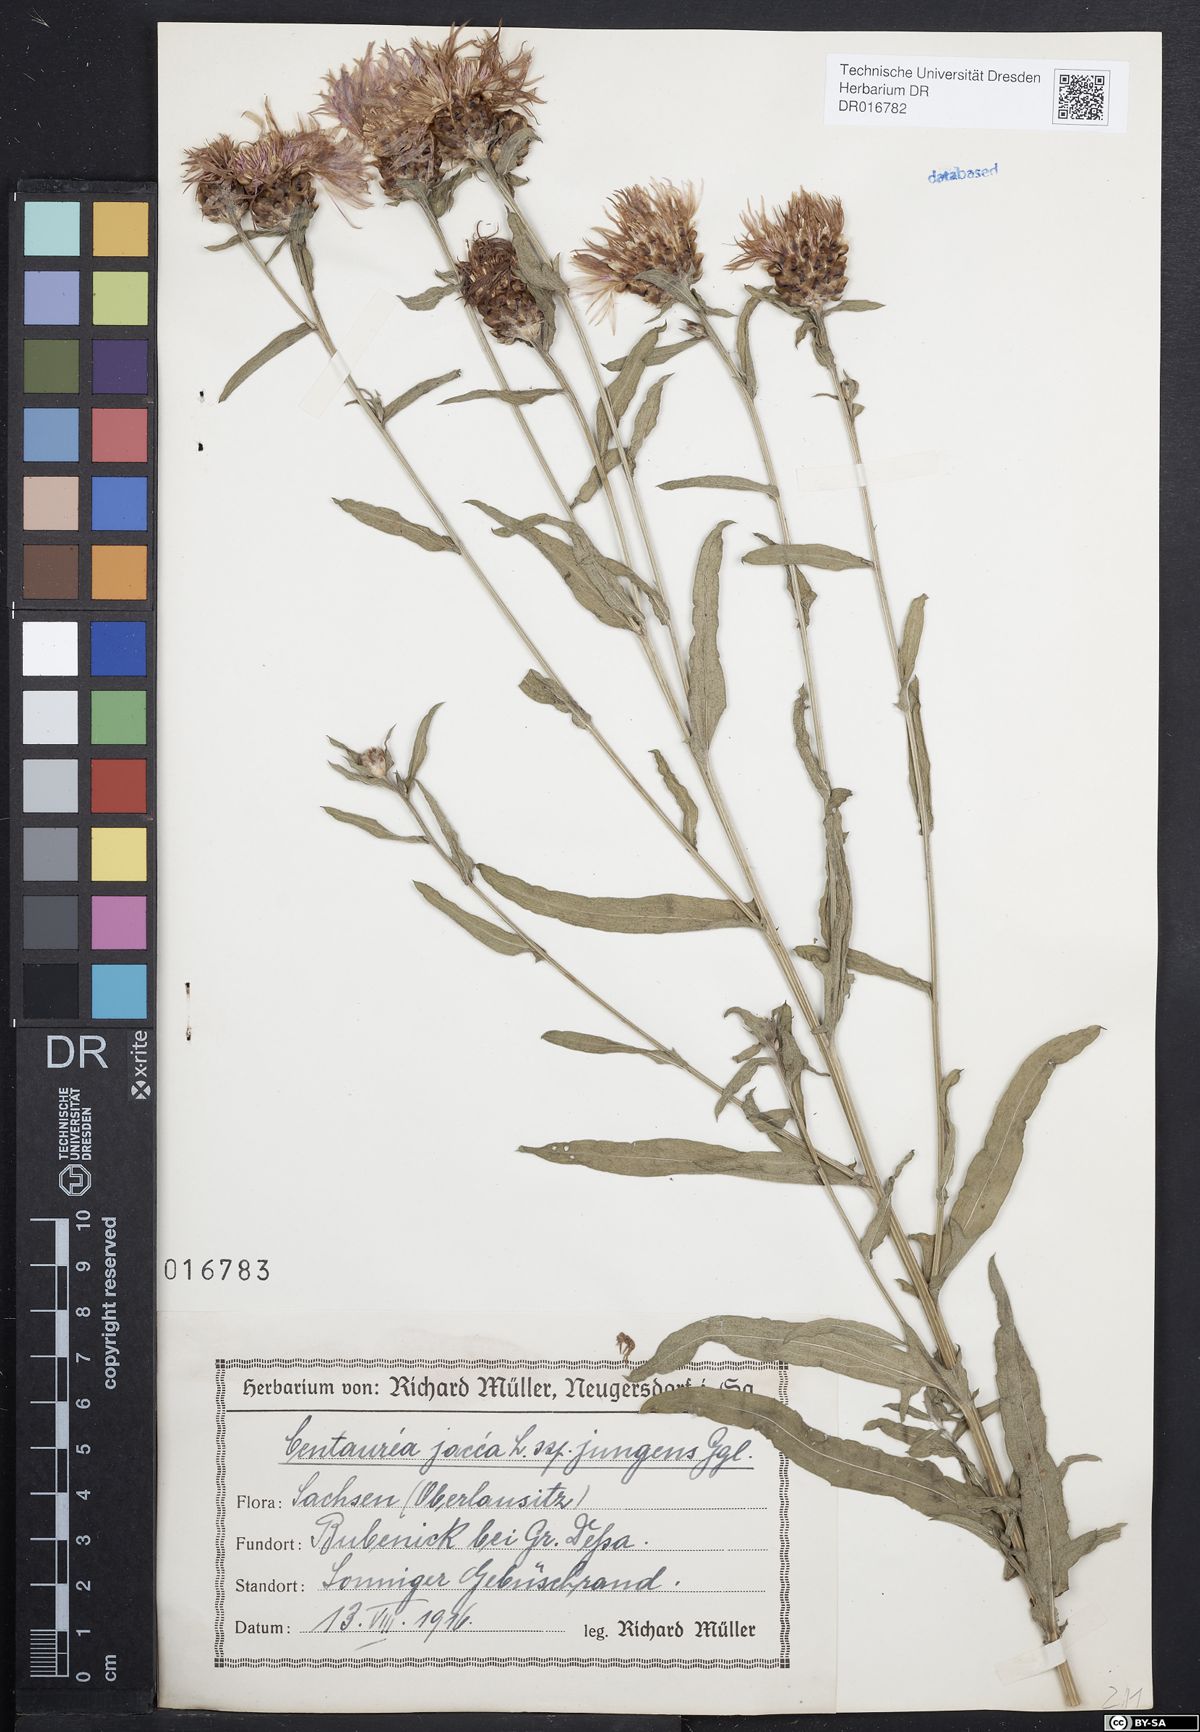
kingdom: Plantae
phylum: Tracheophyta
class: Magnoliopsida
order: Asterales
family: Asteraceae
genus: Centaurea
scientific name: Centaurea jacea
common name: Brown knapweed
